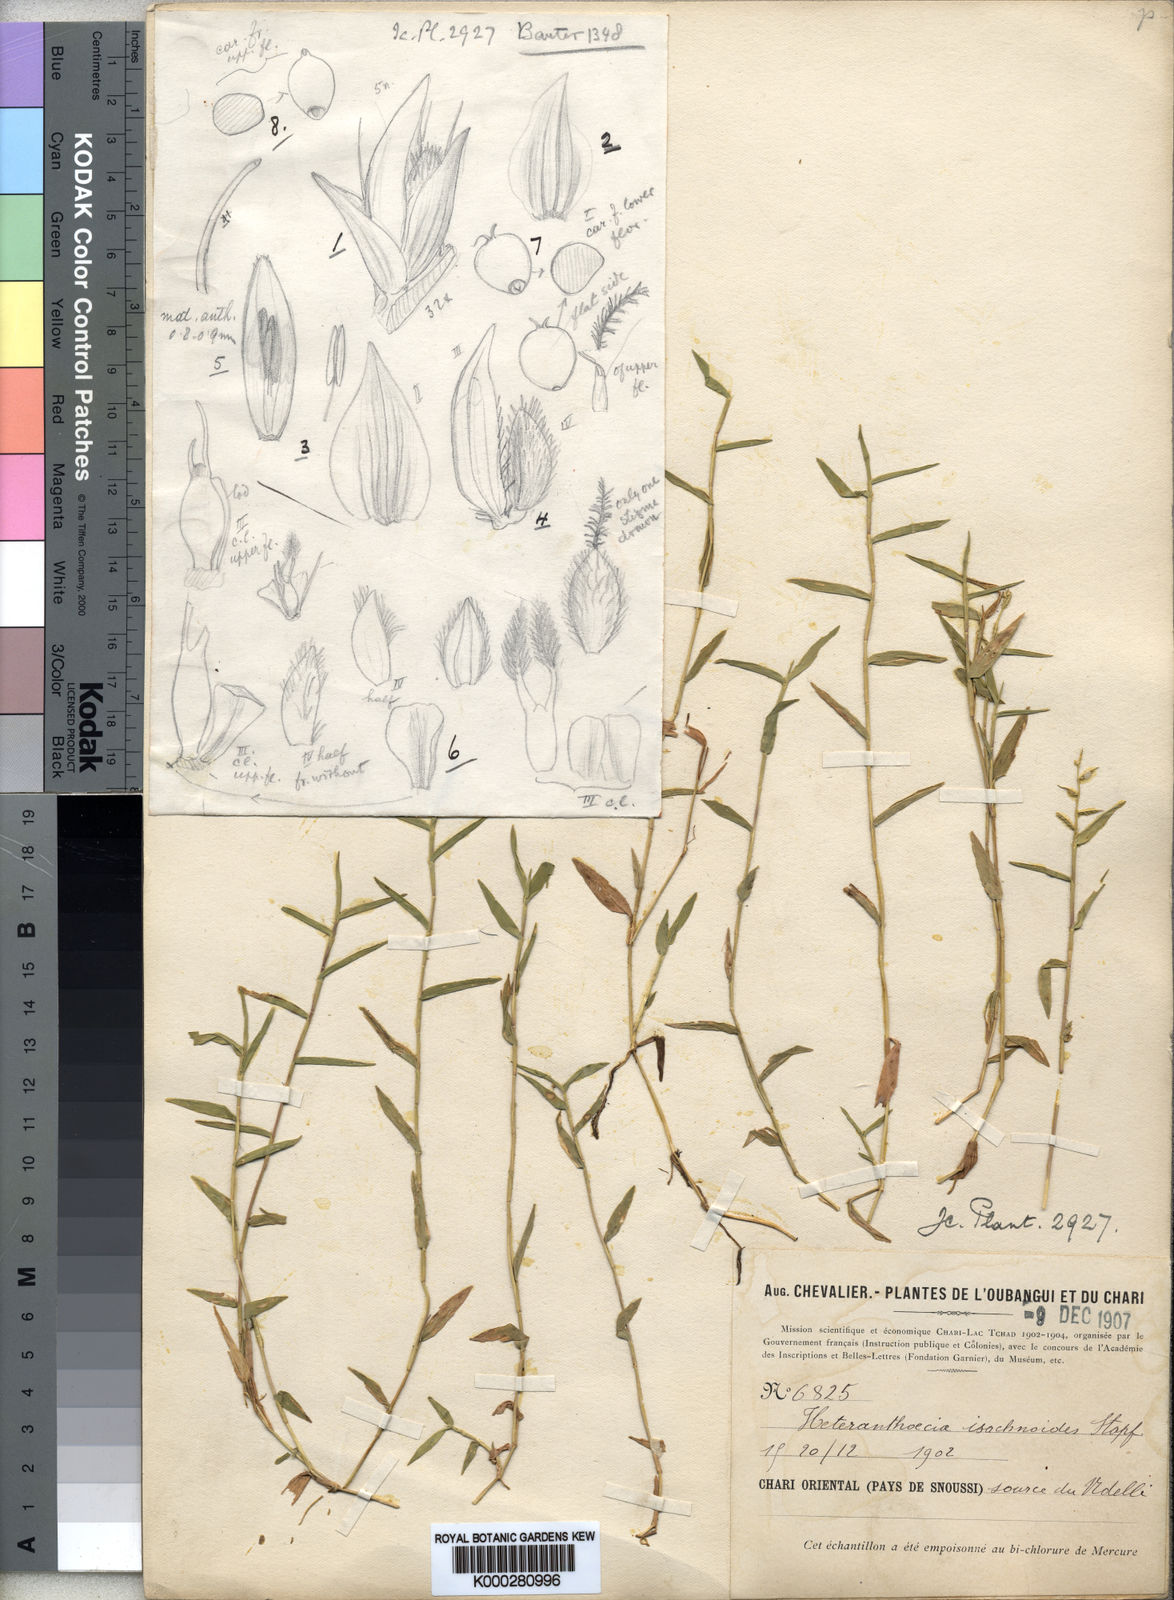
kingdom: Plantae
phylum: Tracheophyta
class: Liliopsida
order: Poales
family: Poaceae
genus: Heteranthoecia
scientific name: Heteranthoecia guineensis
